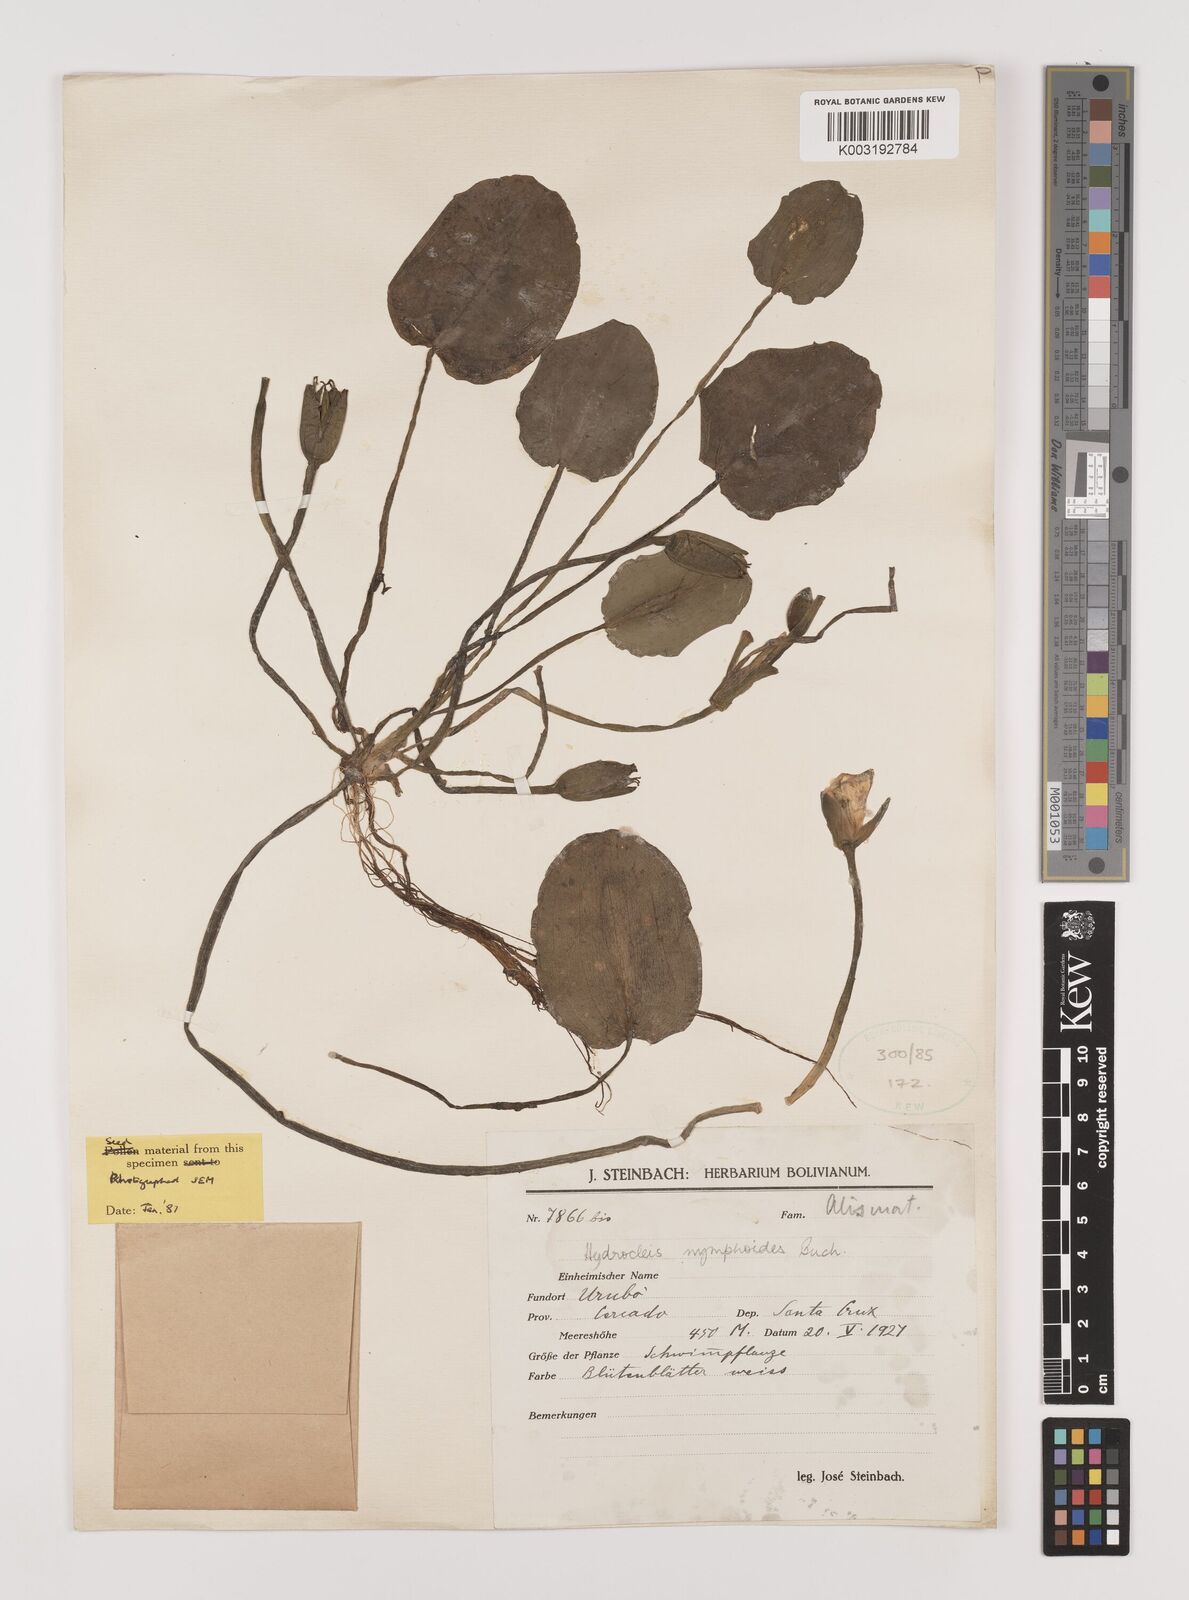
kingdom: Plantae
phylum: Tracheophyta
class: Liliopsida
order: Alismatales
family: Alismataceae
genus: Hydrocleys
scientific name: Hydrocleys nymphoides
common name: Water-poppy
